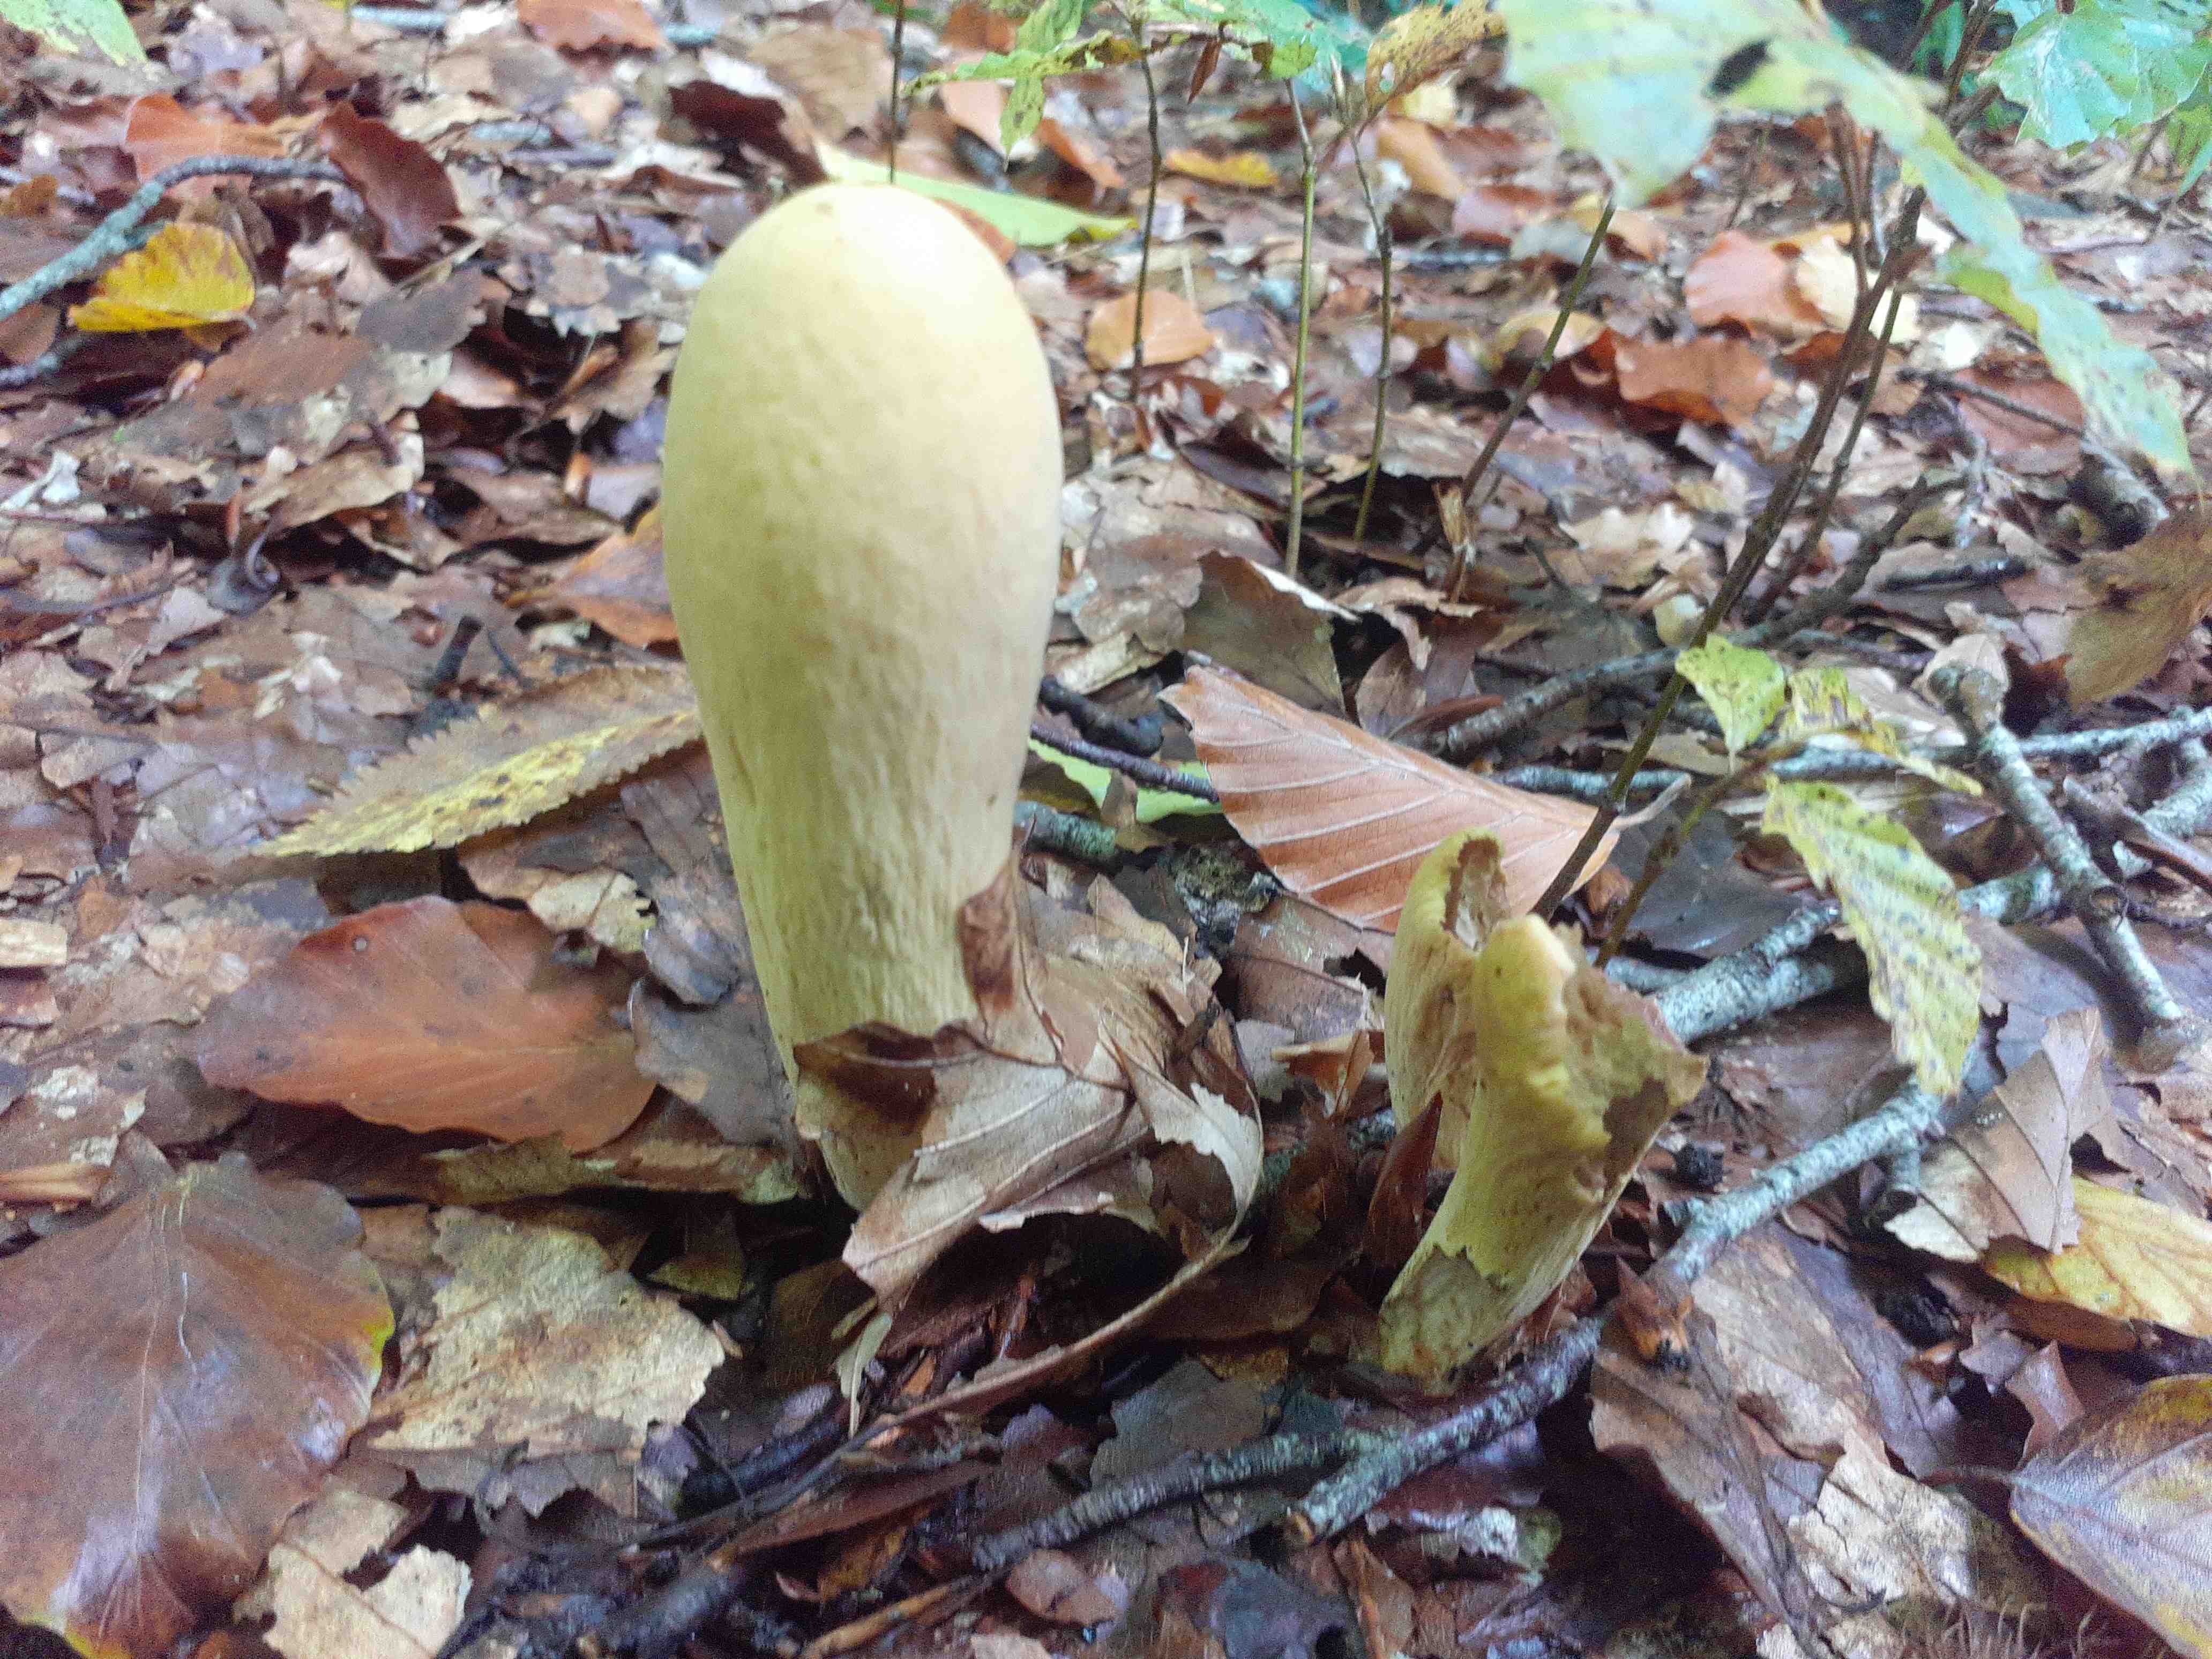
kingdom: Fungi
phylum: Basidiomycota
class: Agaricomycetes
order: Gomphales
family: Clavariadelphaceae
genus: Clavariadelphus
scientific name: Clavariadelphus pistillaris
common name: herkules-kæmpekølle
